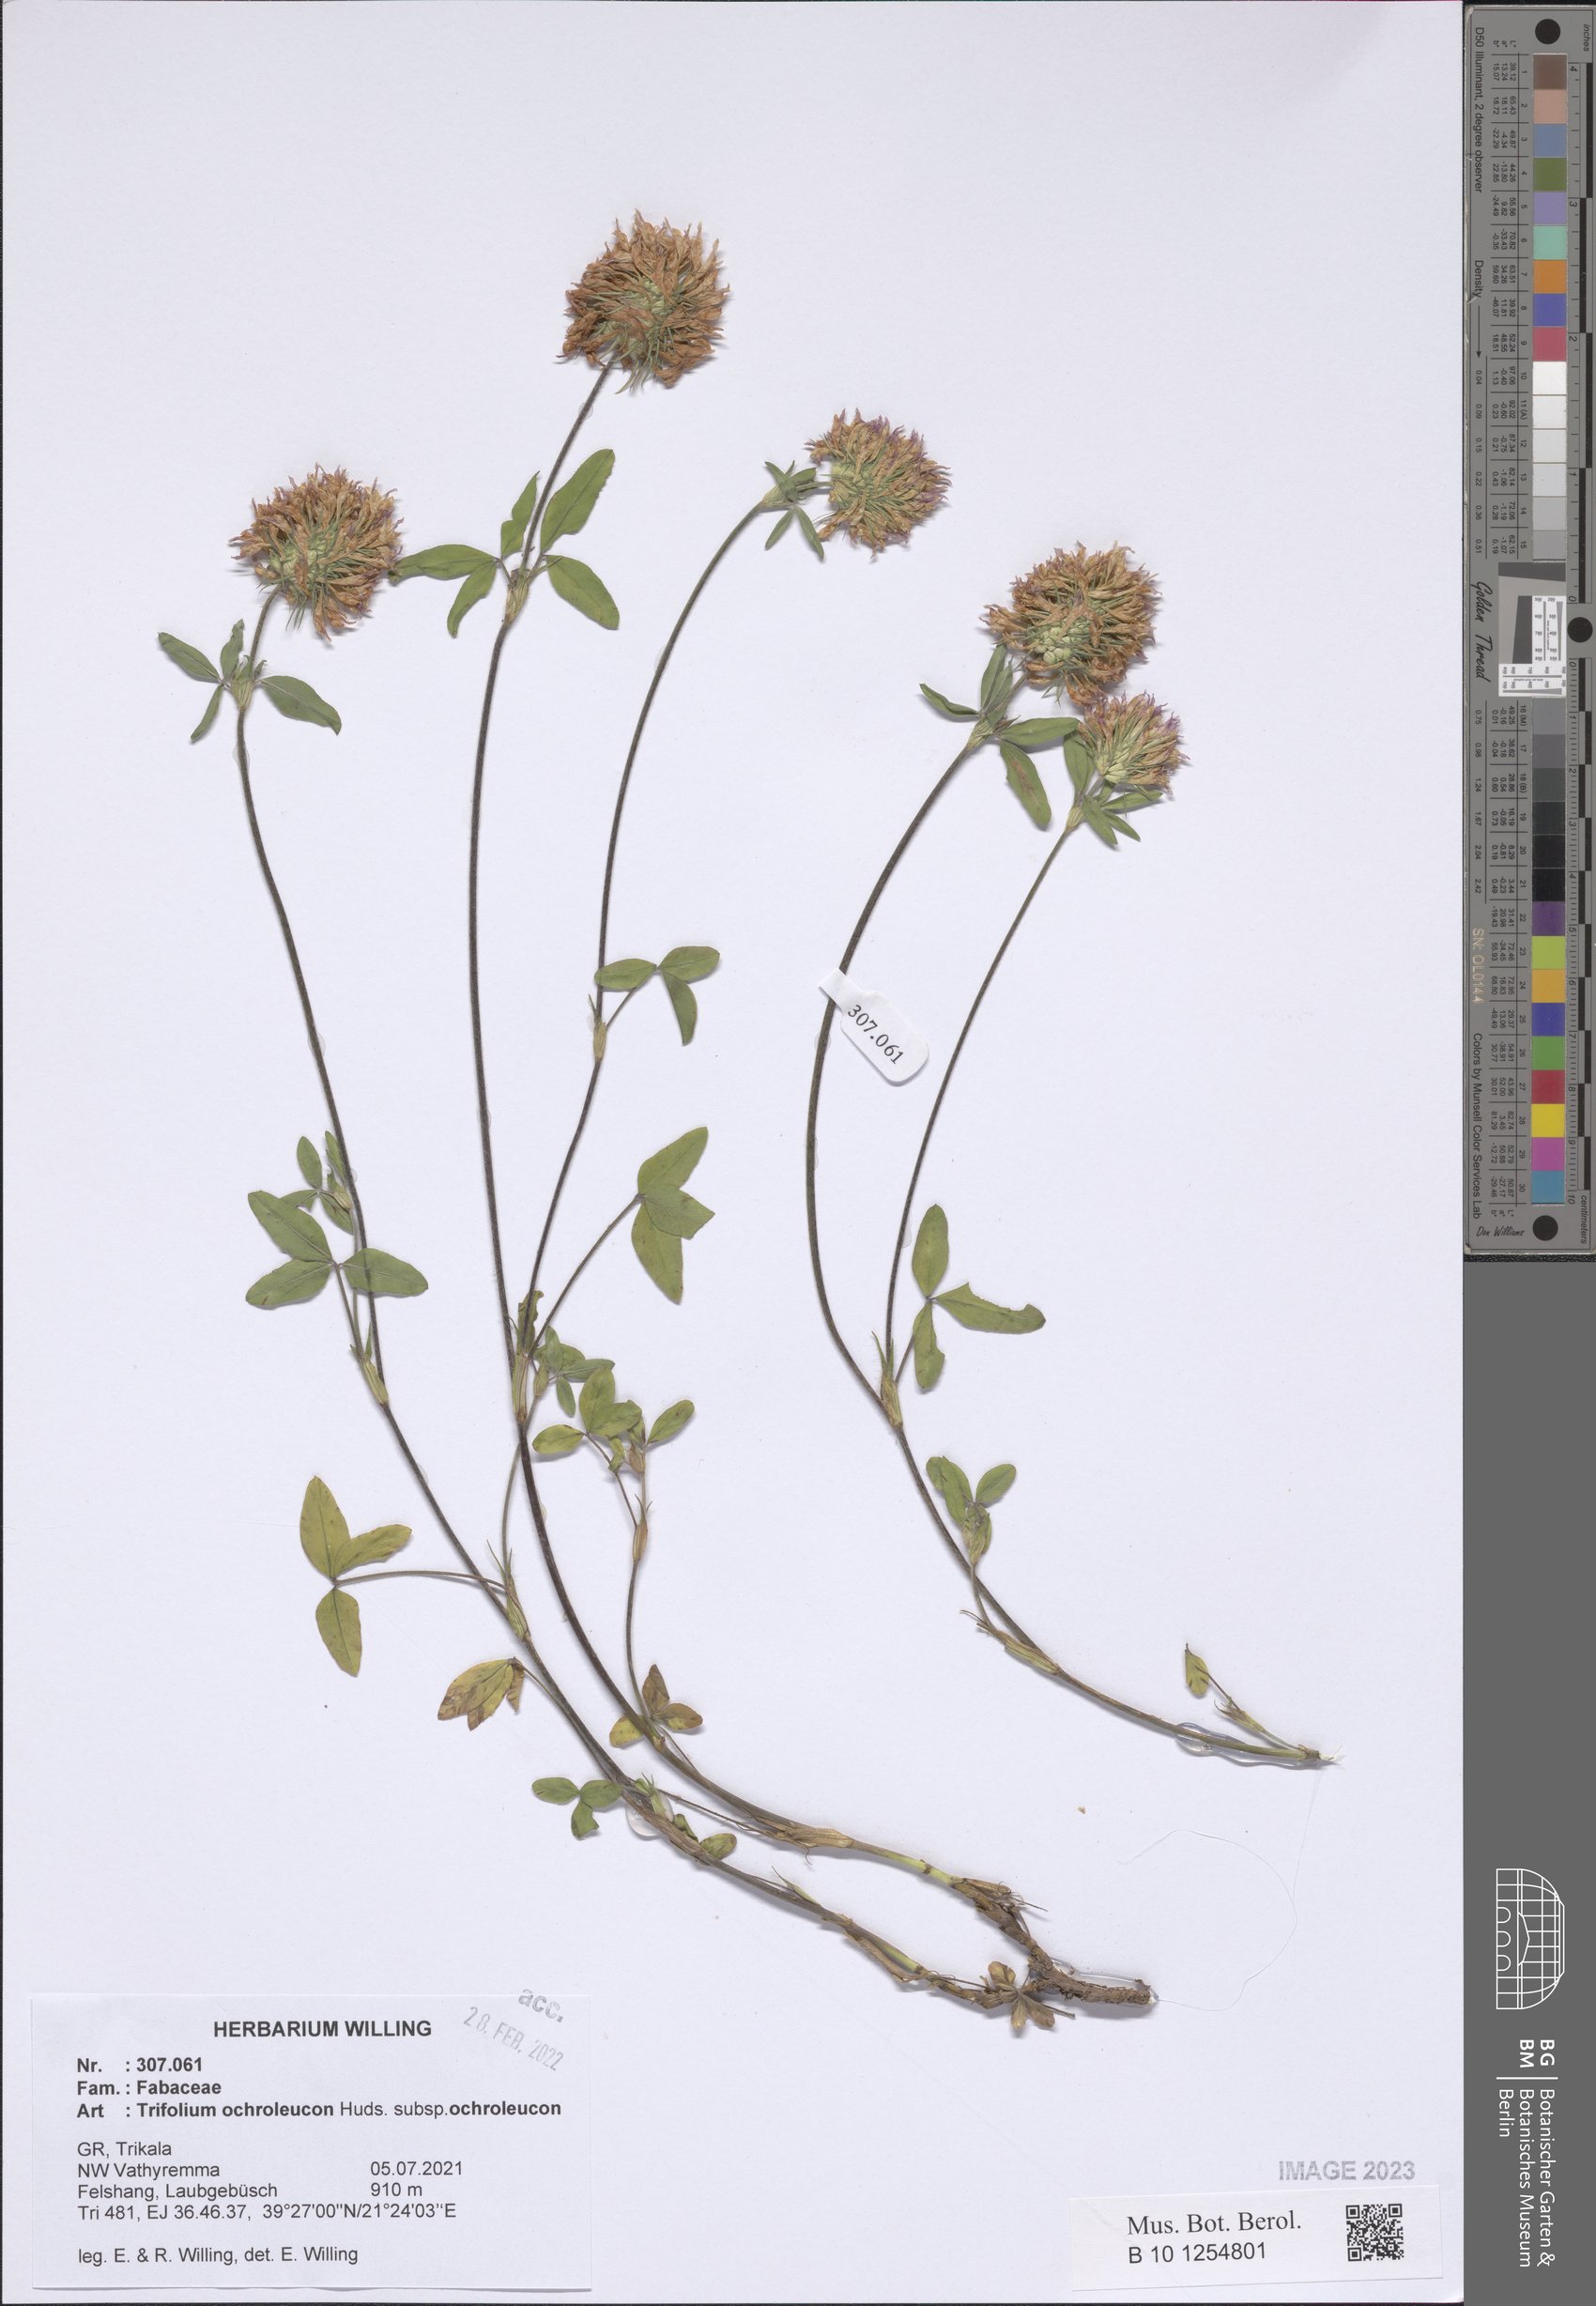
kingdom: Plantae
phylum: Tracheophyta
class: Magnoliopsida
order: Fabales
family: Fabaceae
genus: Trifolium
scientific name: Trifolium ochroleucon
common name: Sulphur clover
